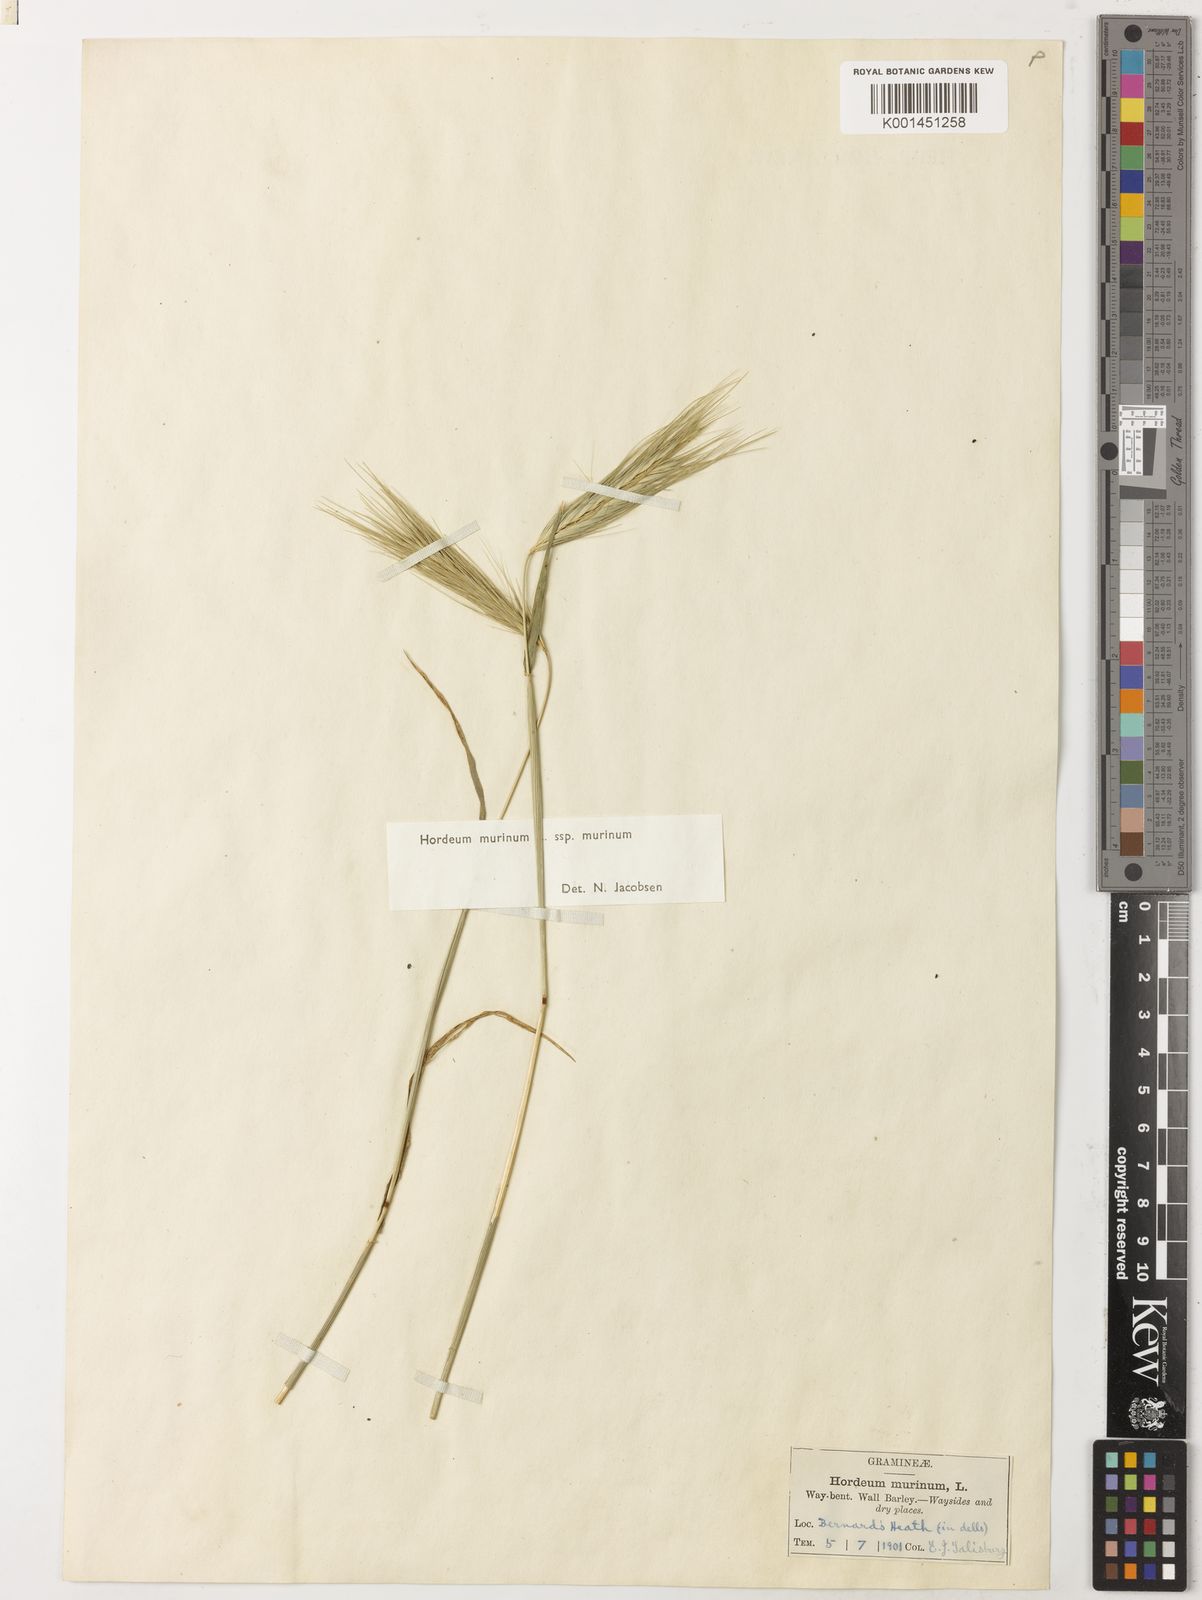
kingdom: Plantae
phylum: Tracheophyta
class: Liliopsida
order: Poales
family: Poaceae
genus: Hordeum
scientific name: Hordeum murinum
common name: Wall barley
